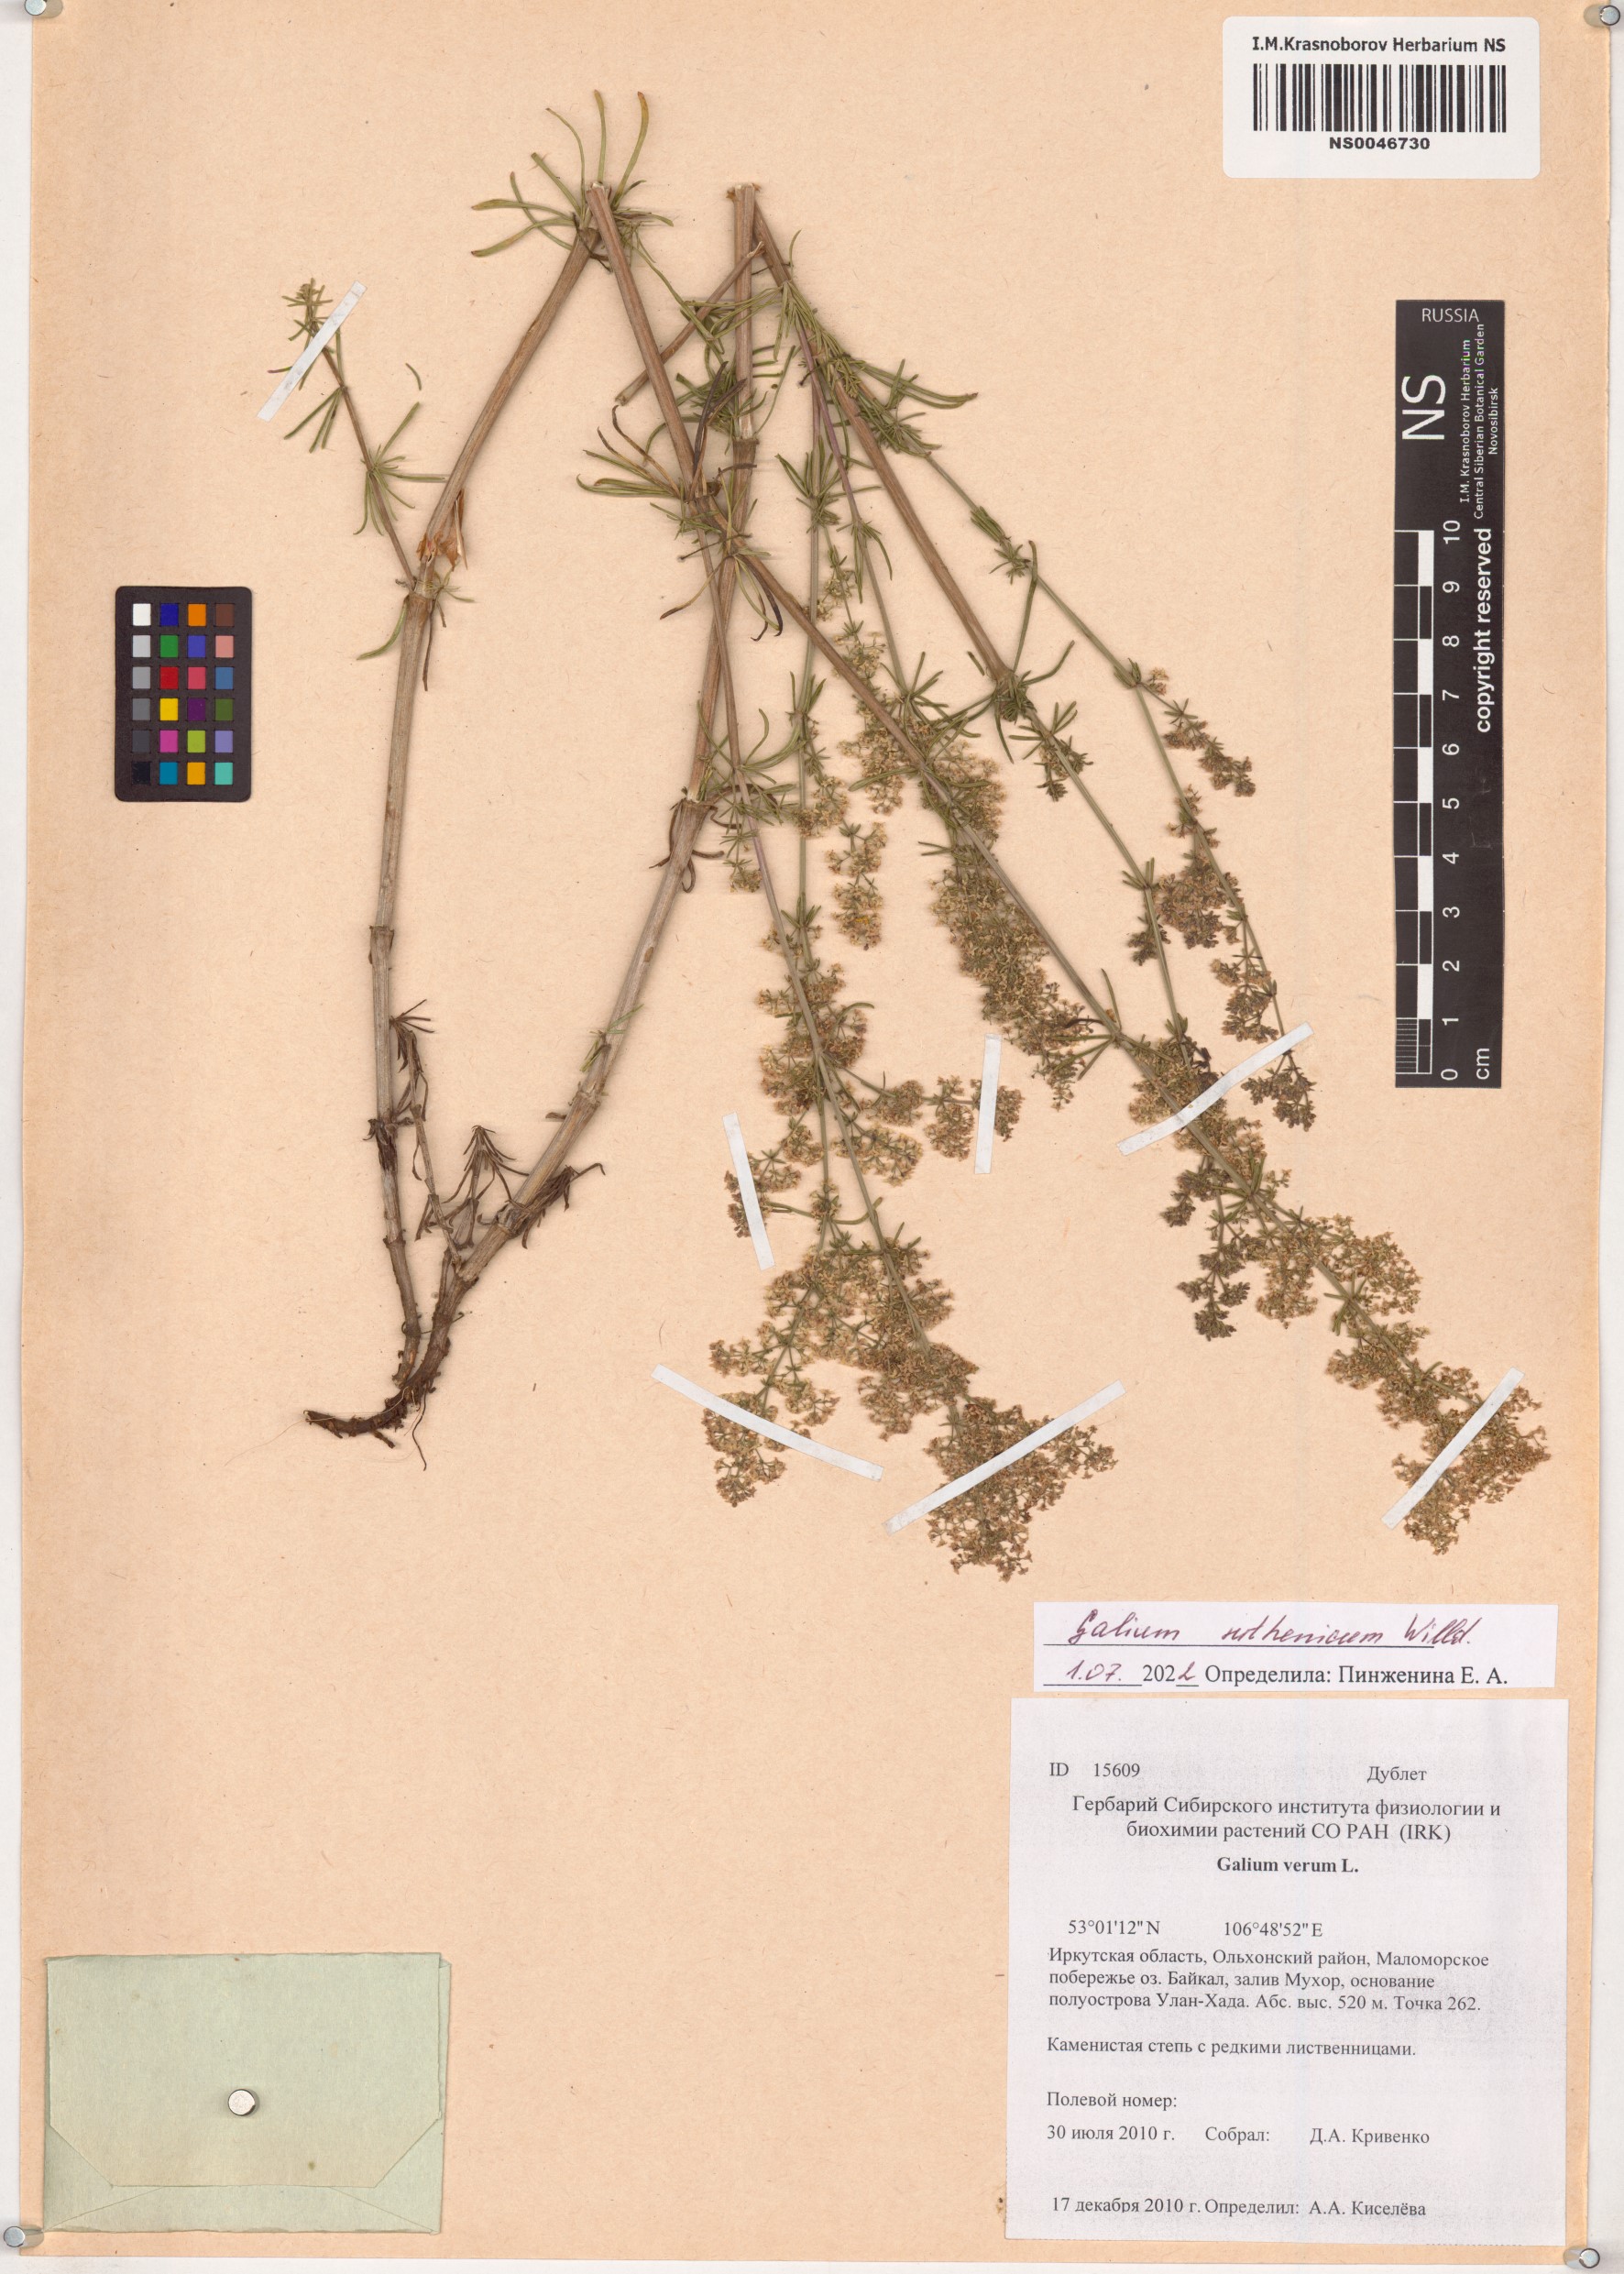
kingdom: Plantae
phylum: Tracheophyta
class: Magnoliopsida
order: Gentianales
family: Rubiaceae
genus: Galium
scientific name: Galium verum
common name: Lady's bedstraw
